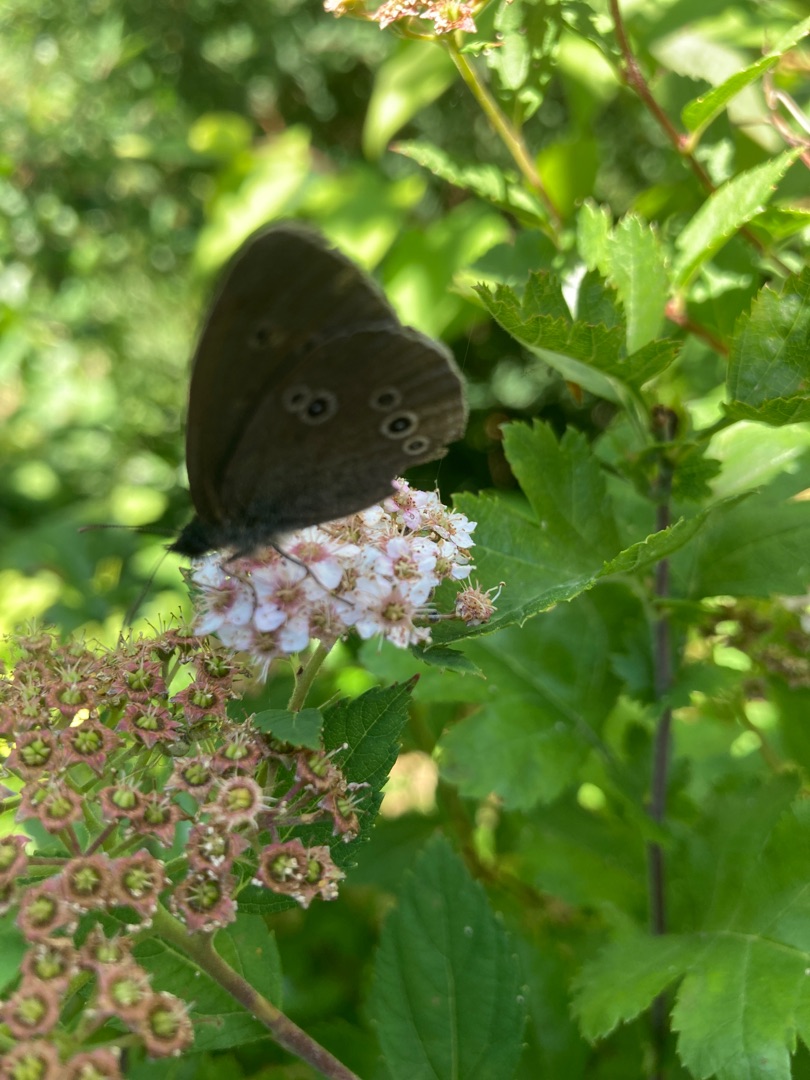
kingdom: Animalia
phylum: Arthropoda
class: Insecta
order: Lepidoptera
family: Nymphalidae
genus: Aphantopus
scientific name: Aphantopus hyperantus
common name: Engrandøje
